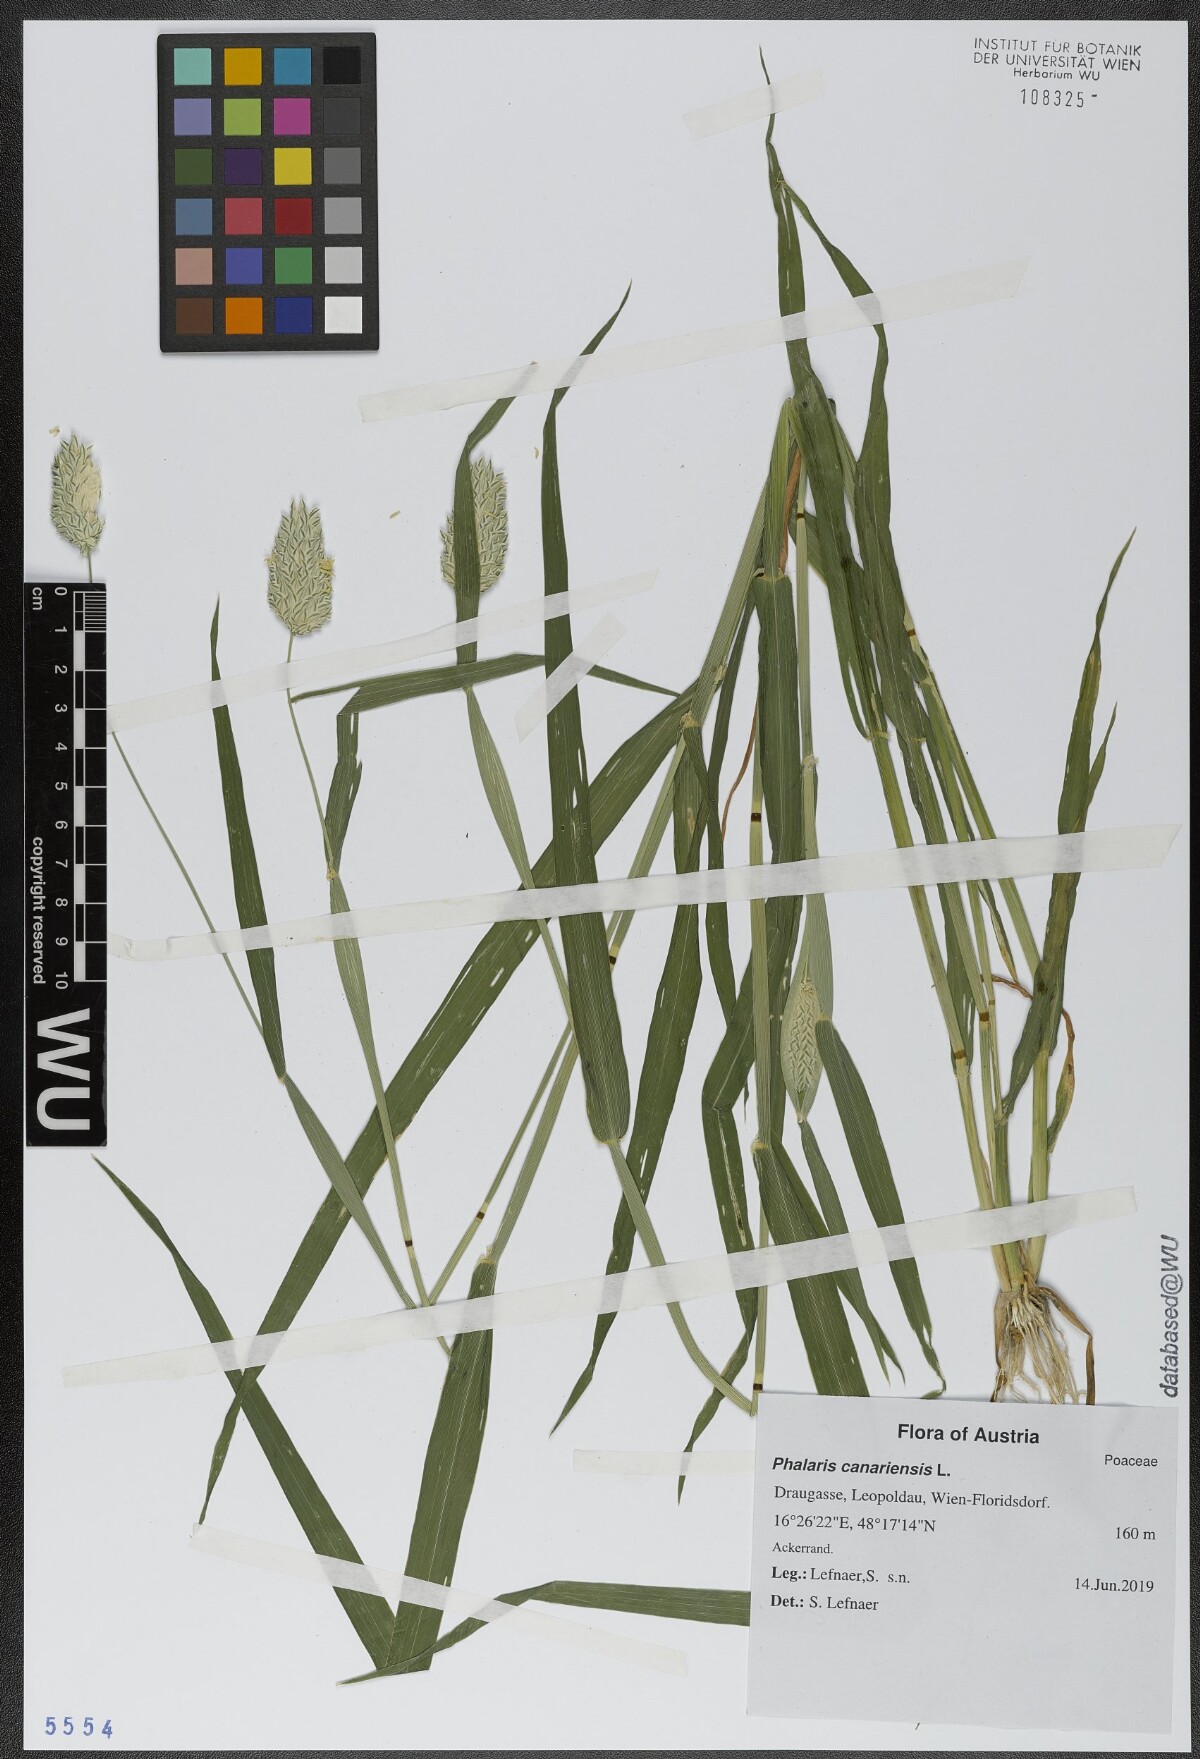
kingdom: Plantae
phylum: Tracheophyta
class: Liliopsida
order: Poales
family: Poaceae
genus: Phalaris
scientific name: Phalaris canariensis
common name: Annual canarygrass
